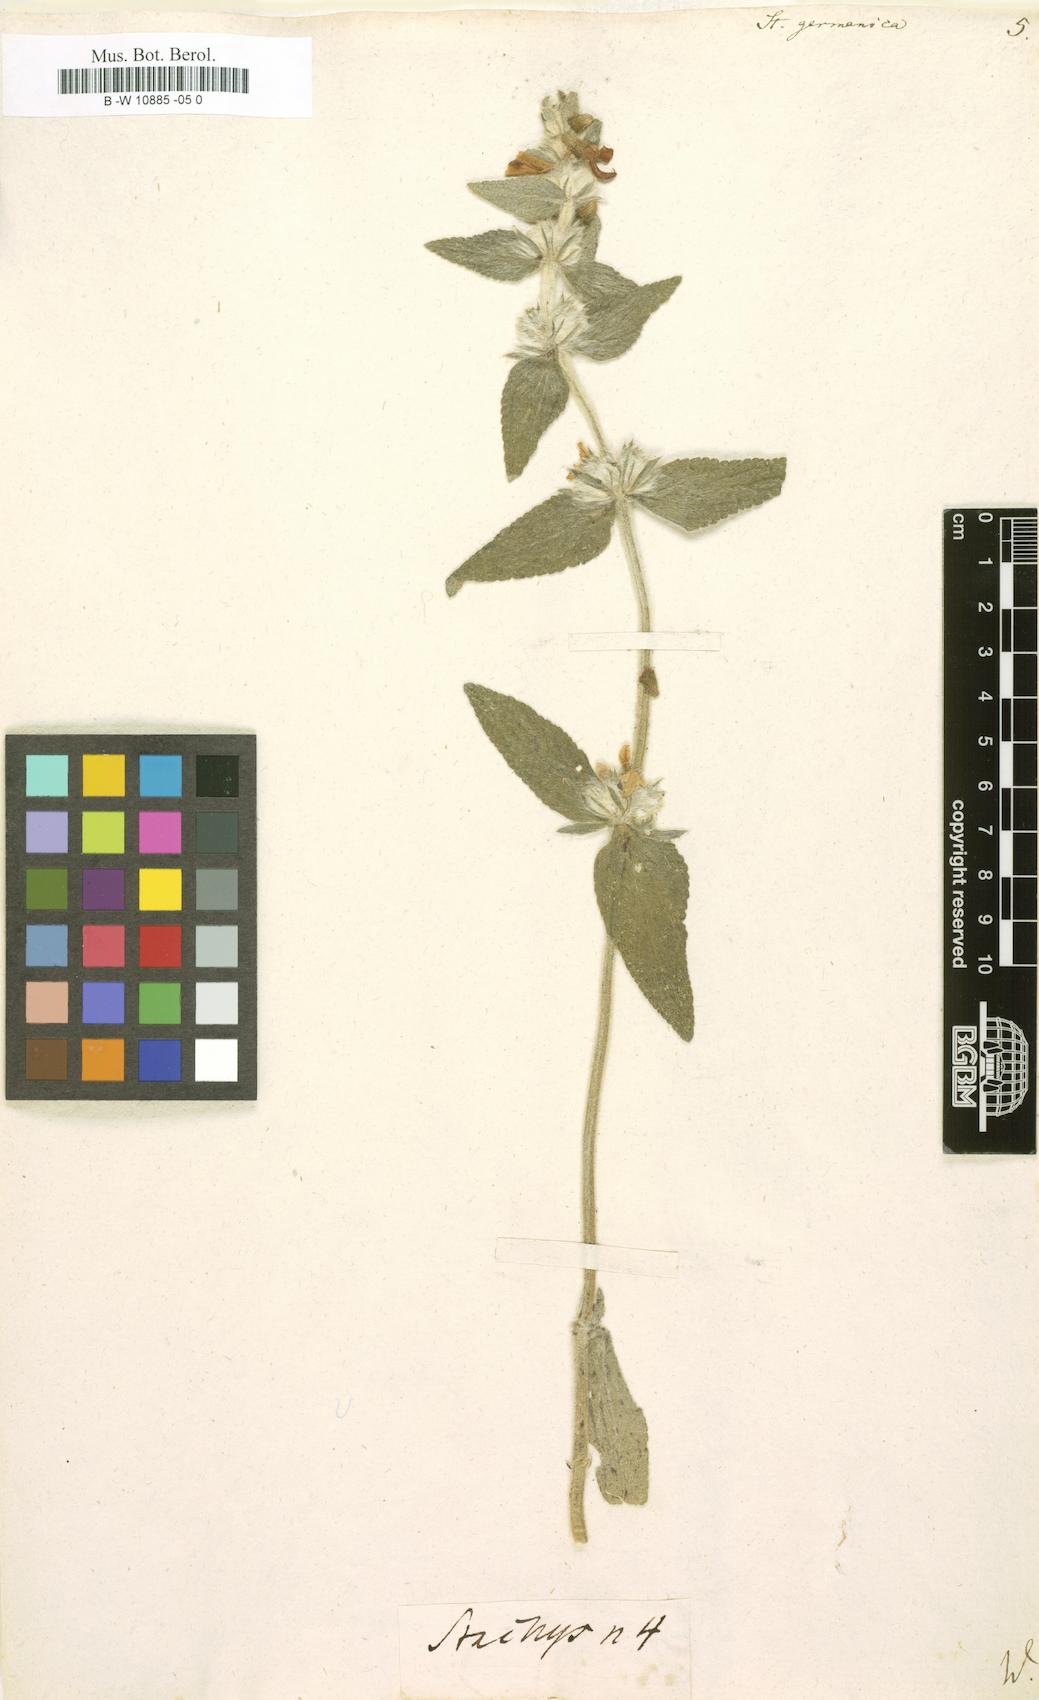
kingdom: Plantae
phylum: Tracheophyta
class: Magnoliopsida
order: Lamiales
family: Lamiaceae
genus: Stachys
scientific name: Stachys germanica
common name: Downy woundwort
